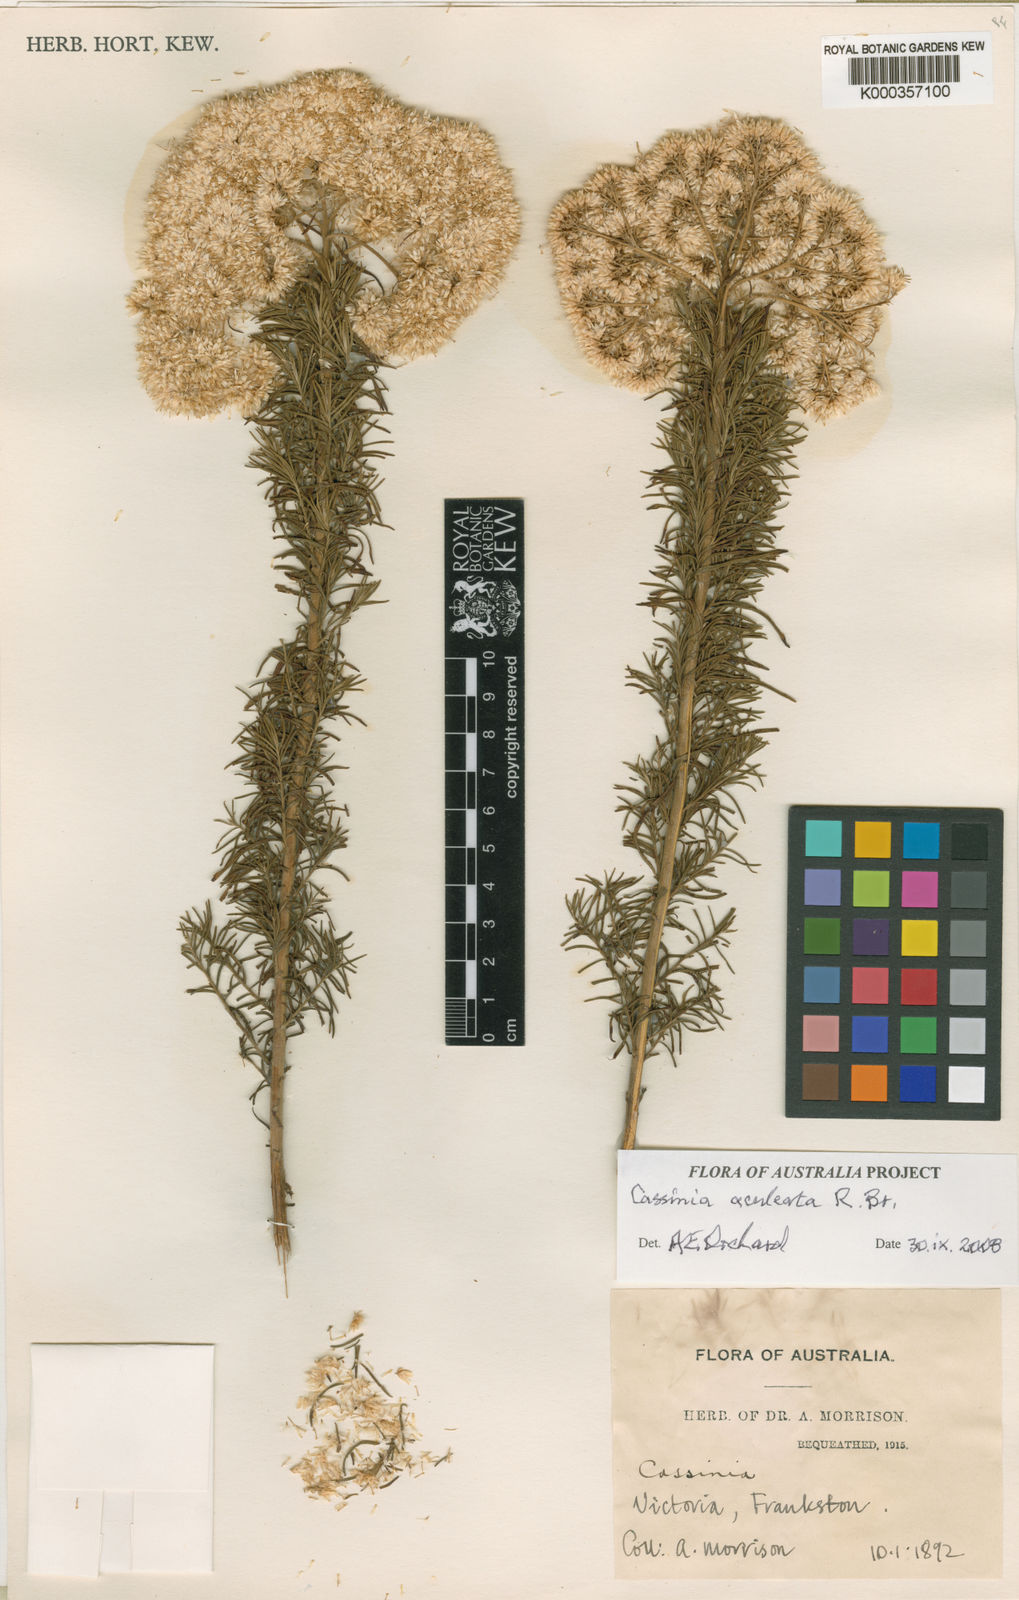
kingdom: Plantae
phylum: Tracheophyta
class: Magnoliopsida
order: Asterales
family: Asteraceae
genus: Cassinia
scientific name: Cassinia aculeata
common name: Australian tauhinu
